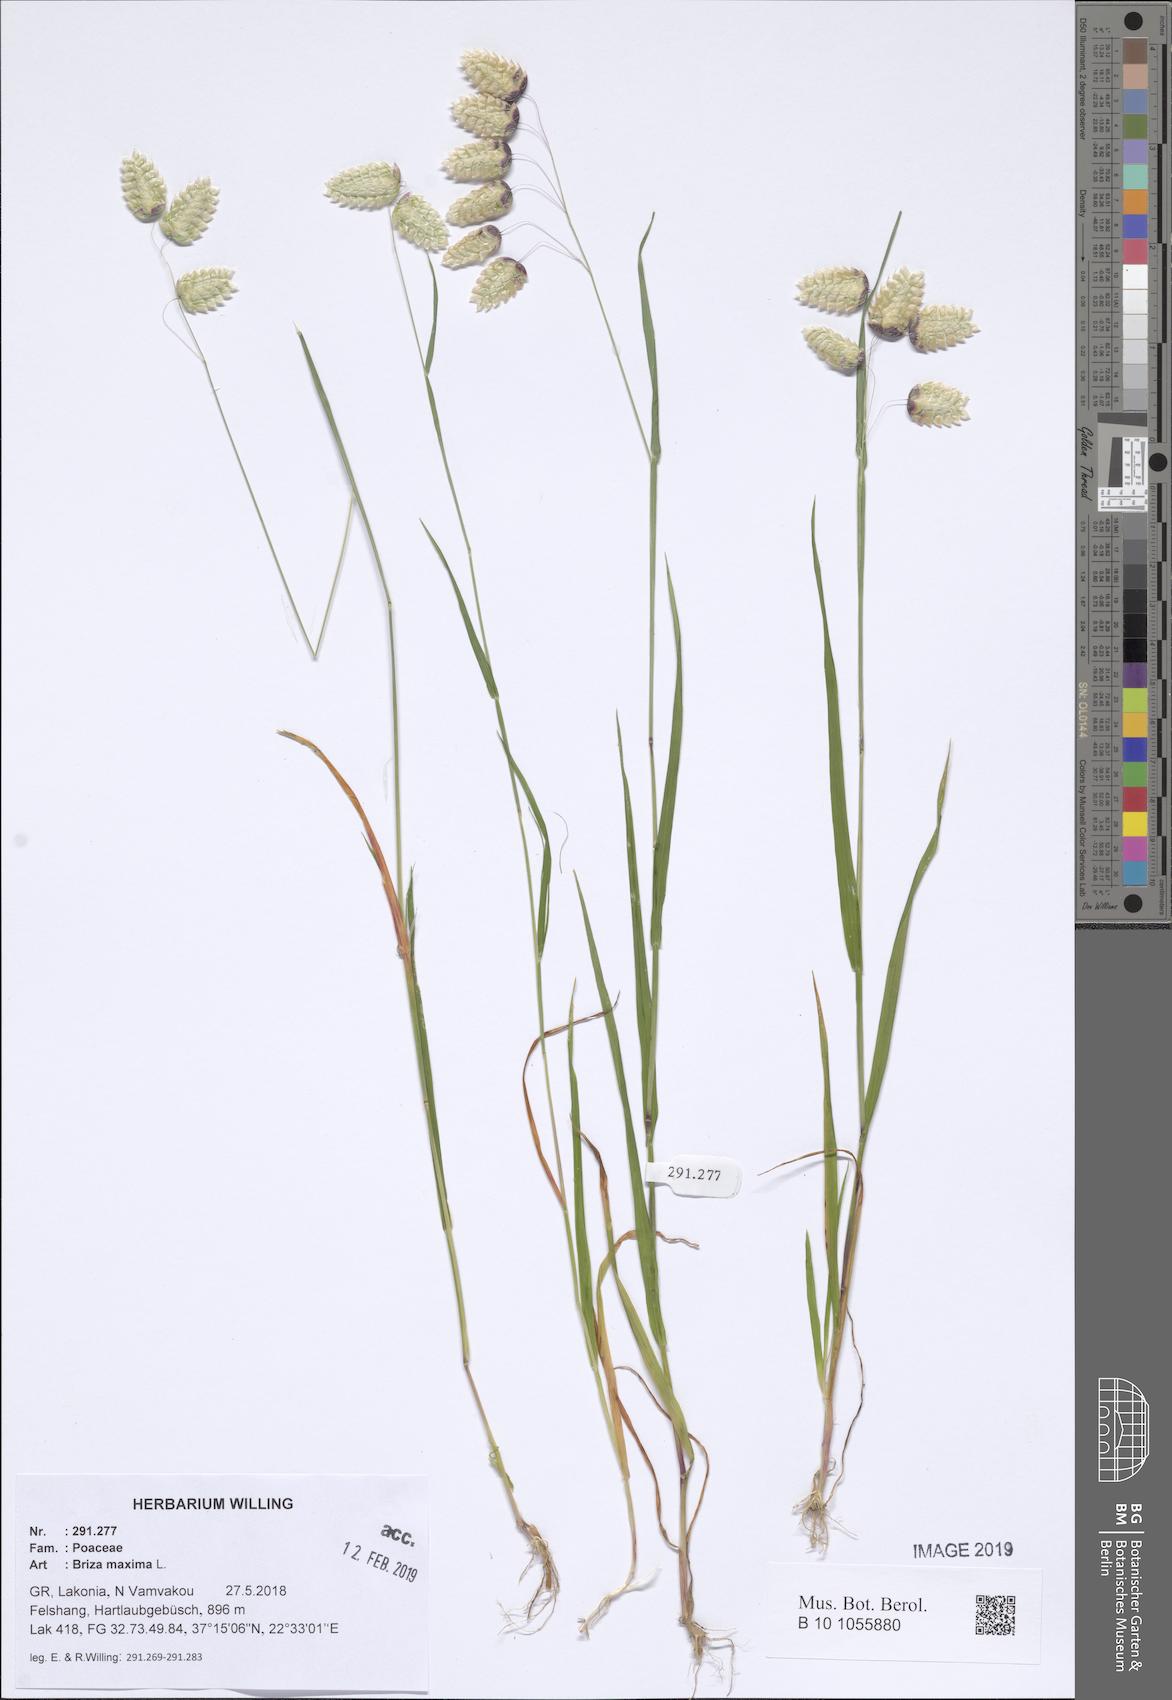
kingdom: Plantae
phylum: Tracheophyta
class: Liliopsida
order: Poales
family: Poaceae
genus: Briza
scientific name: Briza maxima
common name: Big quakinggrass
